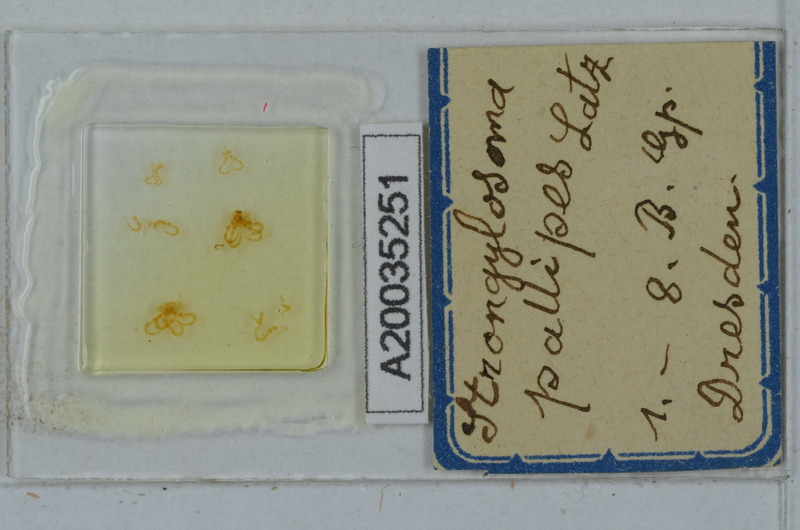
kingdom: Animalia
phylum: Arthropoda
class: Diplopoda
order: Polydesmida
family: Paradoxosomatidae
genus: Strongylosoma
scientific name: Strongylosoma stigmatosus
